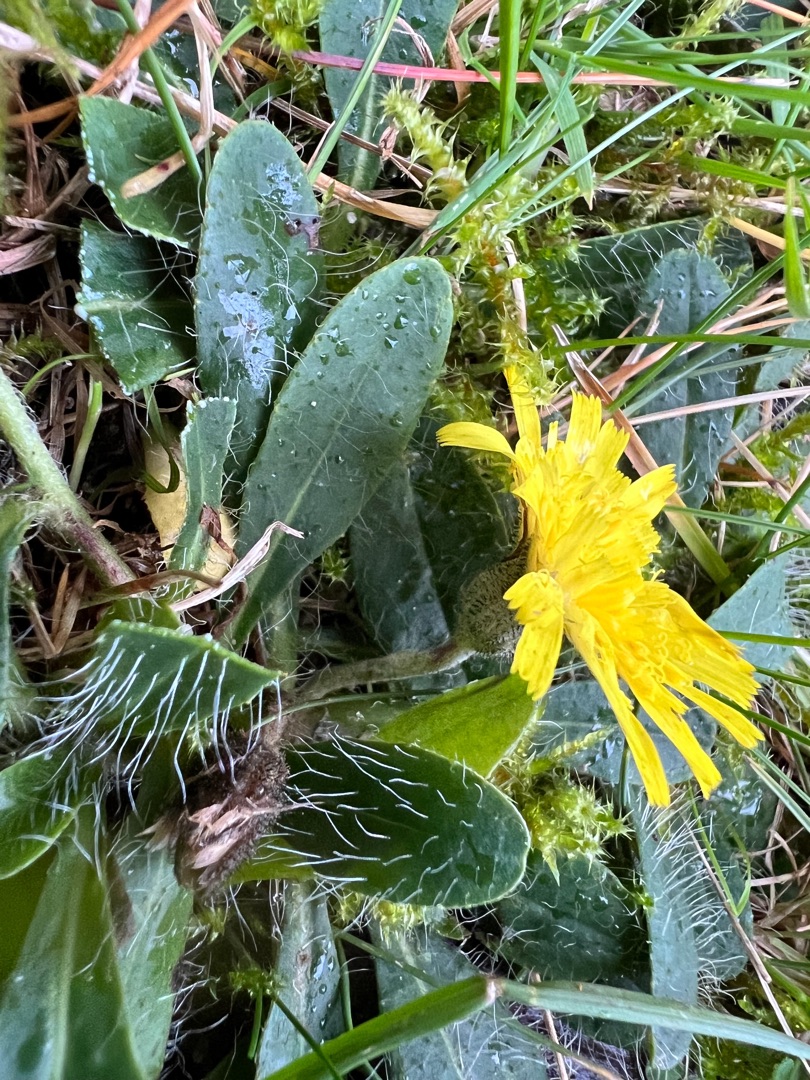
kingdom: Plantae
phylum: Tracheophyta
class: Magnoliopsida
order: Asterales
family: Asteraceae
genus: Pilosella
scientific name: Pilosella officinarum
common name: Håret høgeurt
